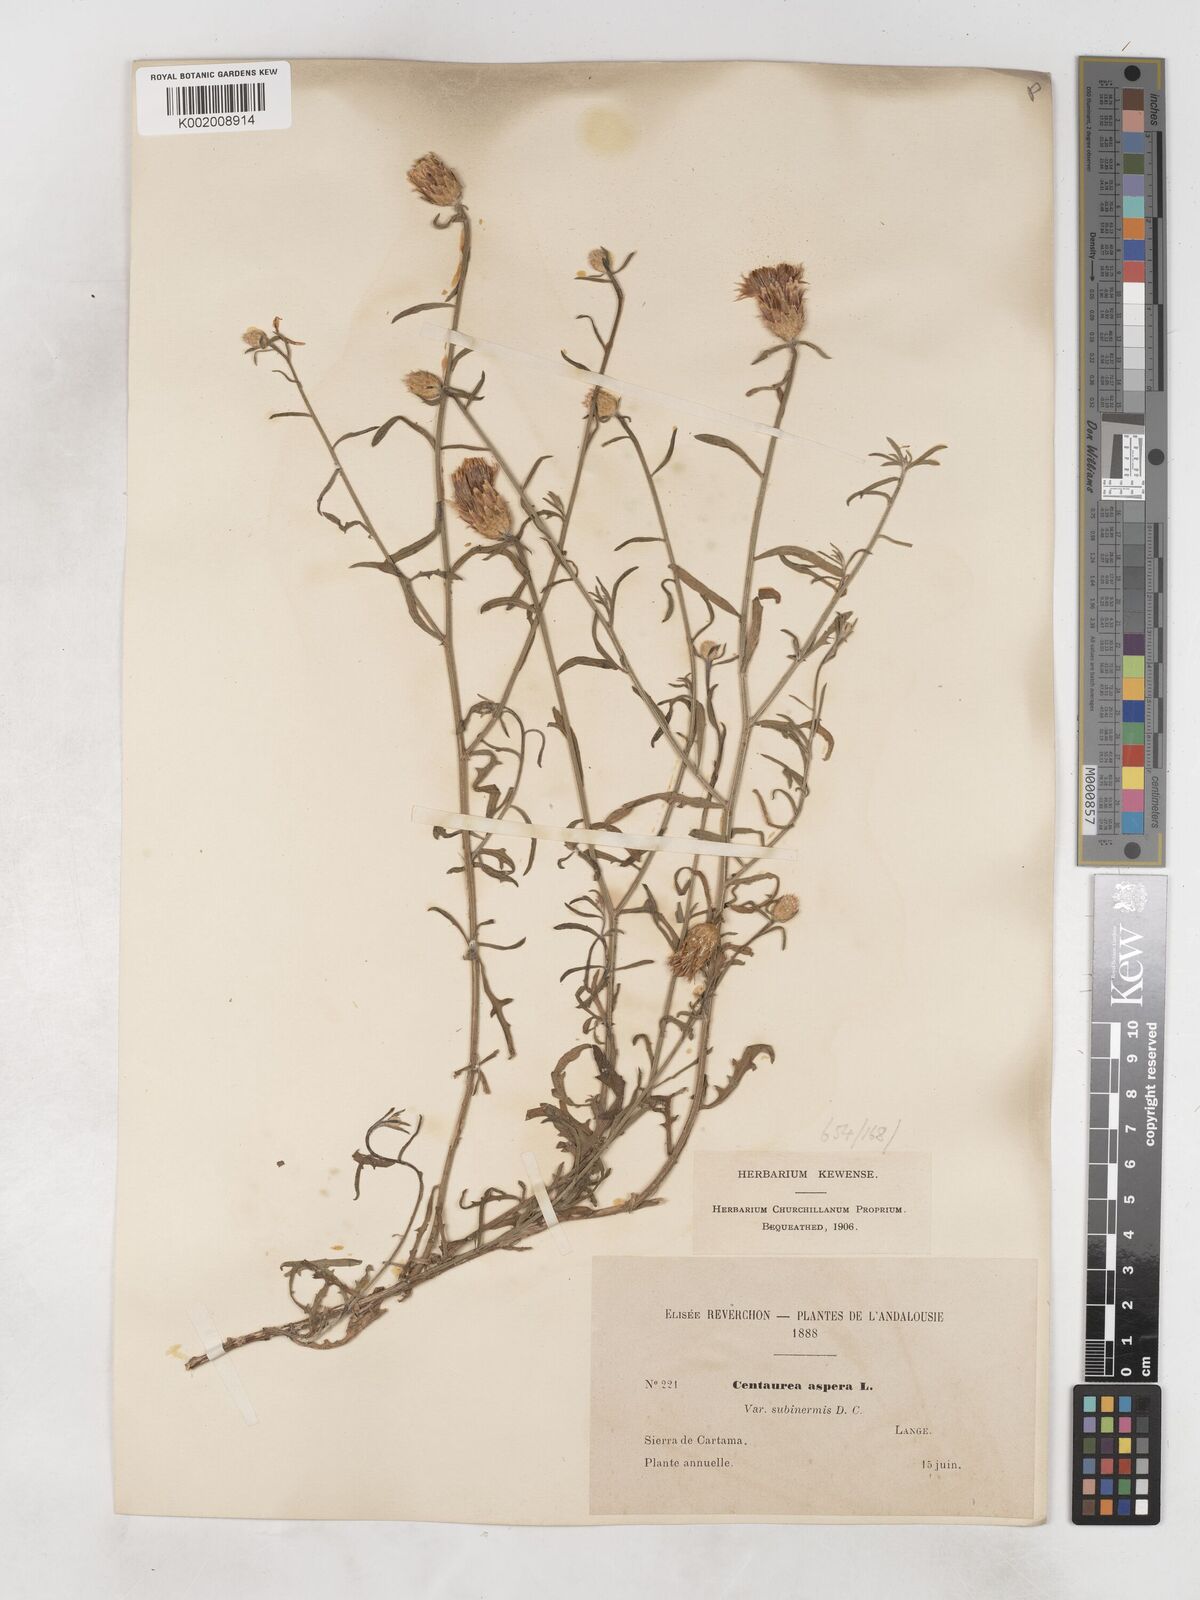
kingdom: Plantae
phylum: Tracheophyta
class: Magnoliopsida
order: Asterales
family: Asteraceae
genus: Centaurea
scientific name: Centaurea aspera
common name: Rough star-thistle
